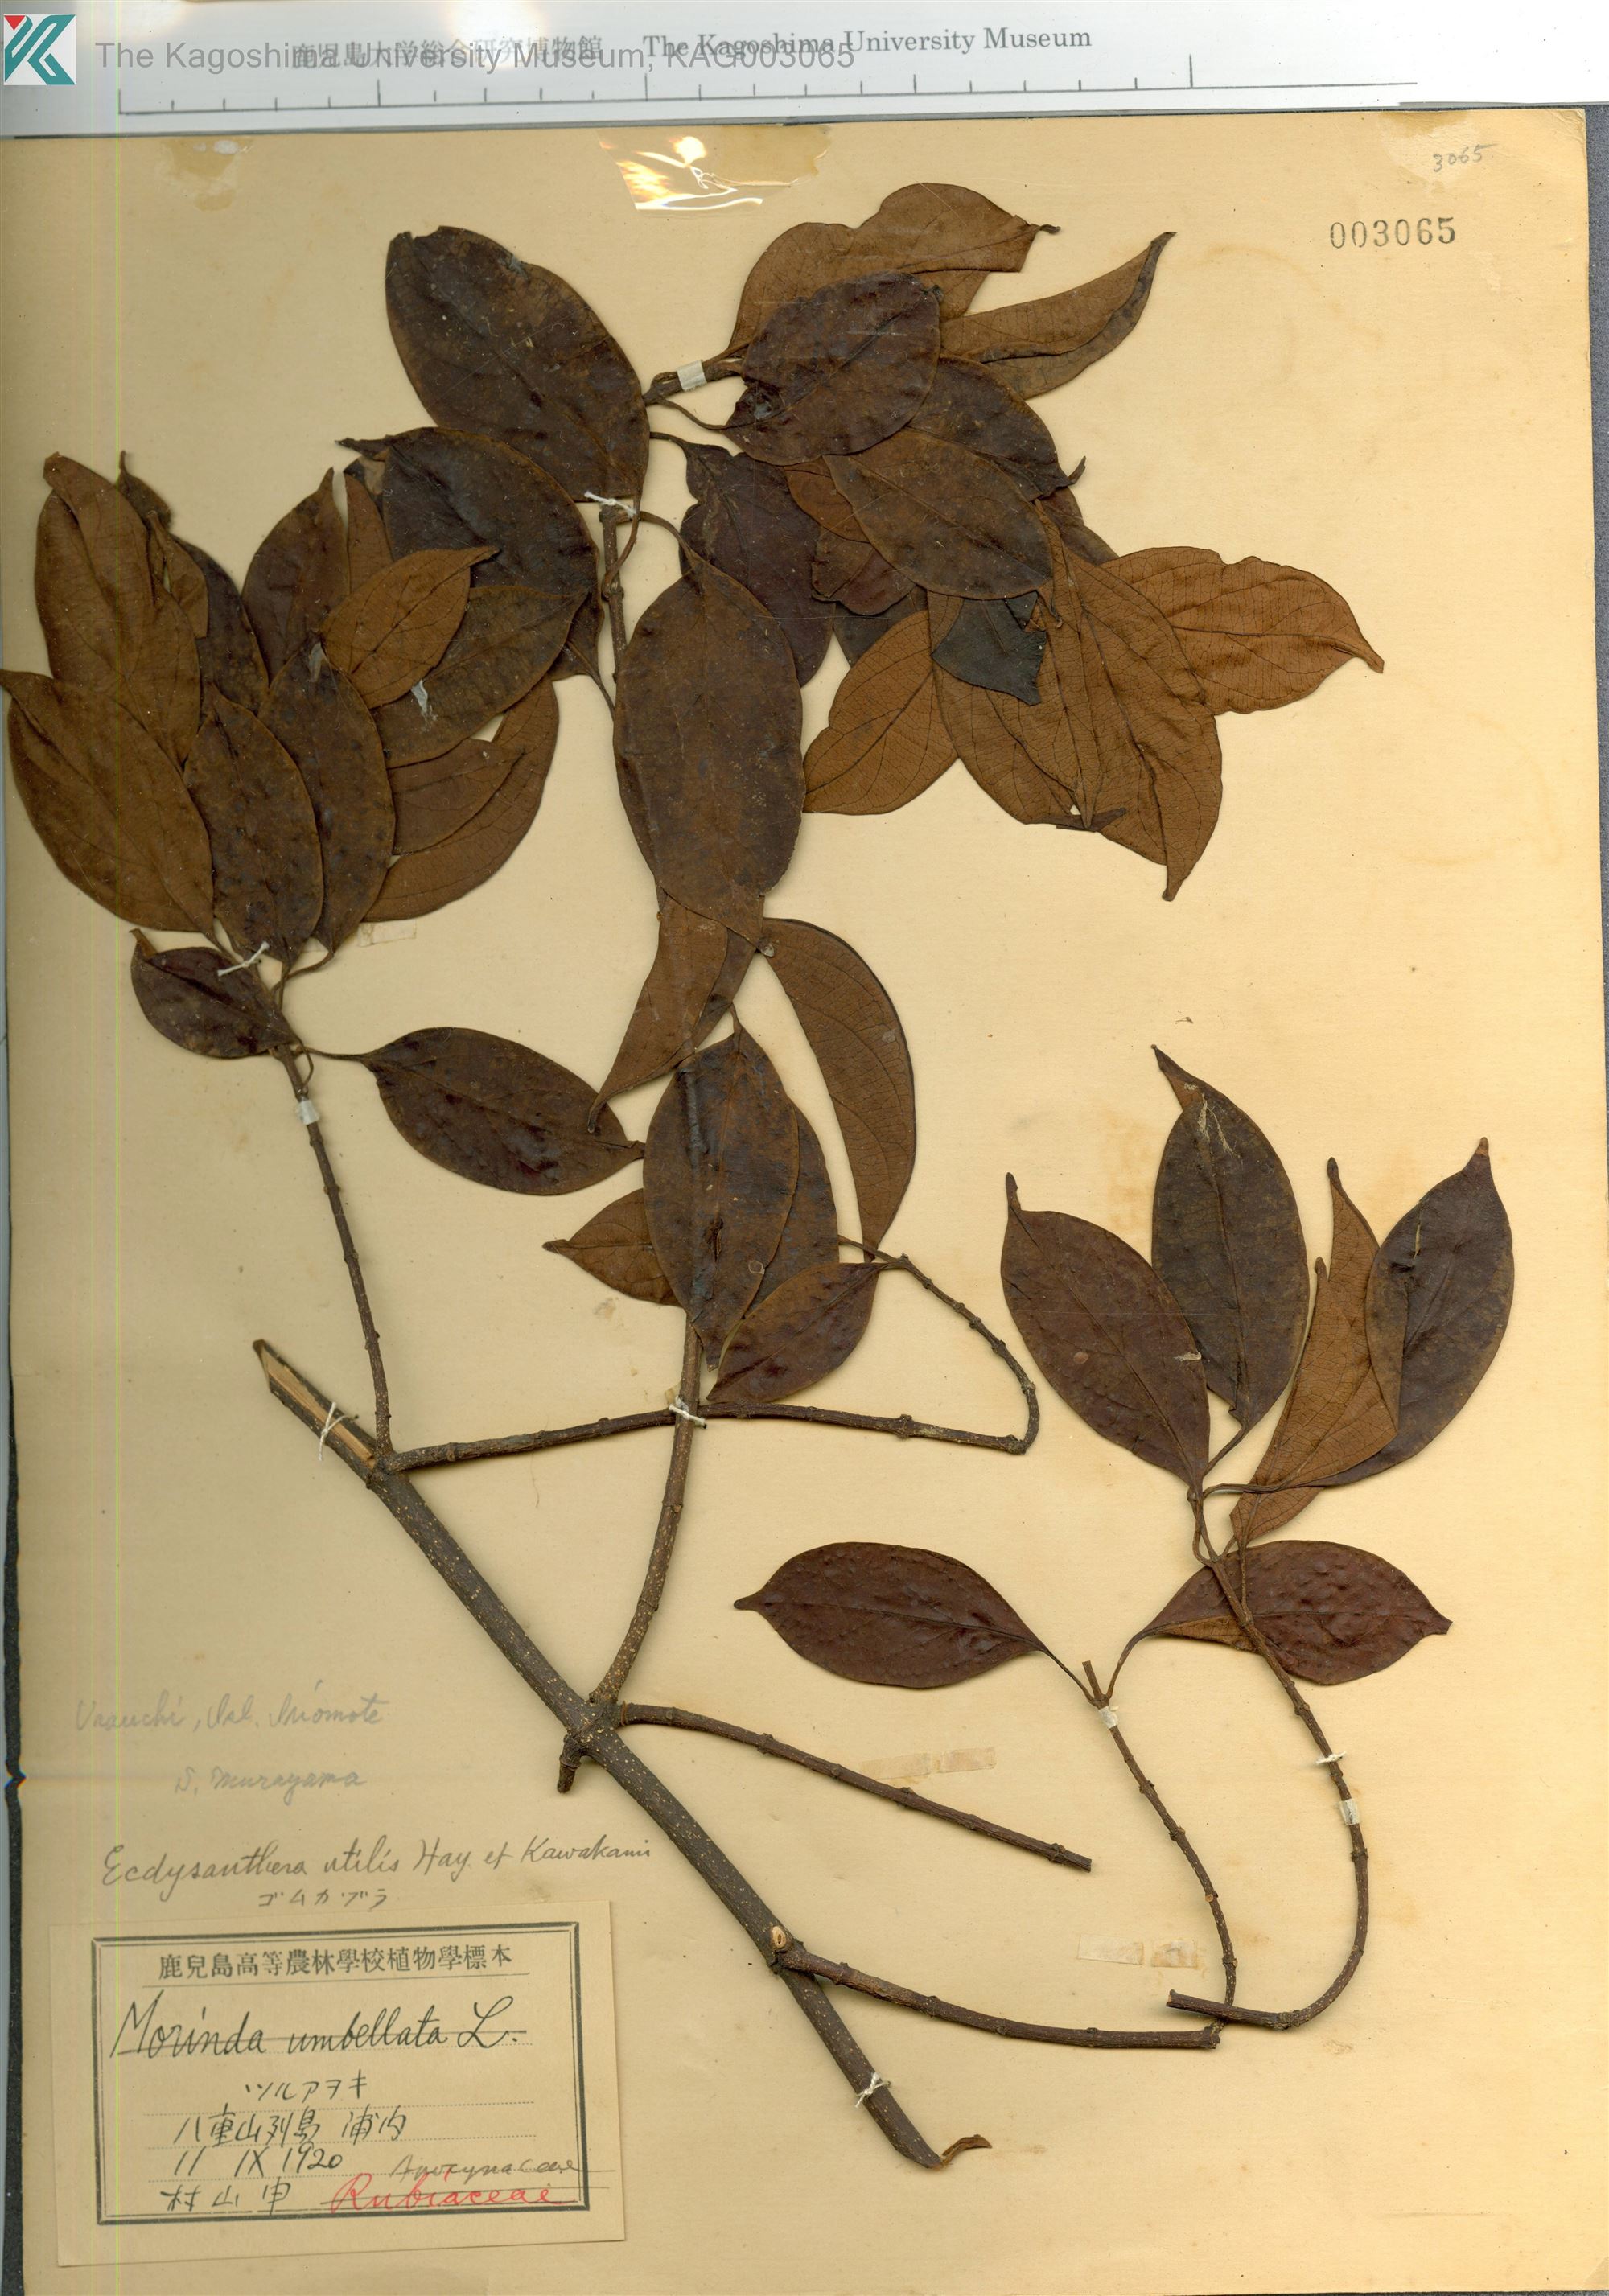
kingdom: Plantae
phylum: Tracheophyta
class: Magnoliopsida
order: Gentianales
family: Apocynaceae
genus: Urceola
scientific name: Urceola micrantha
